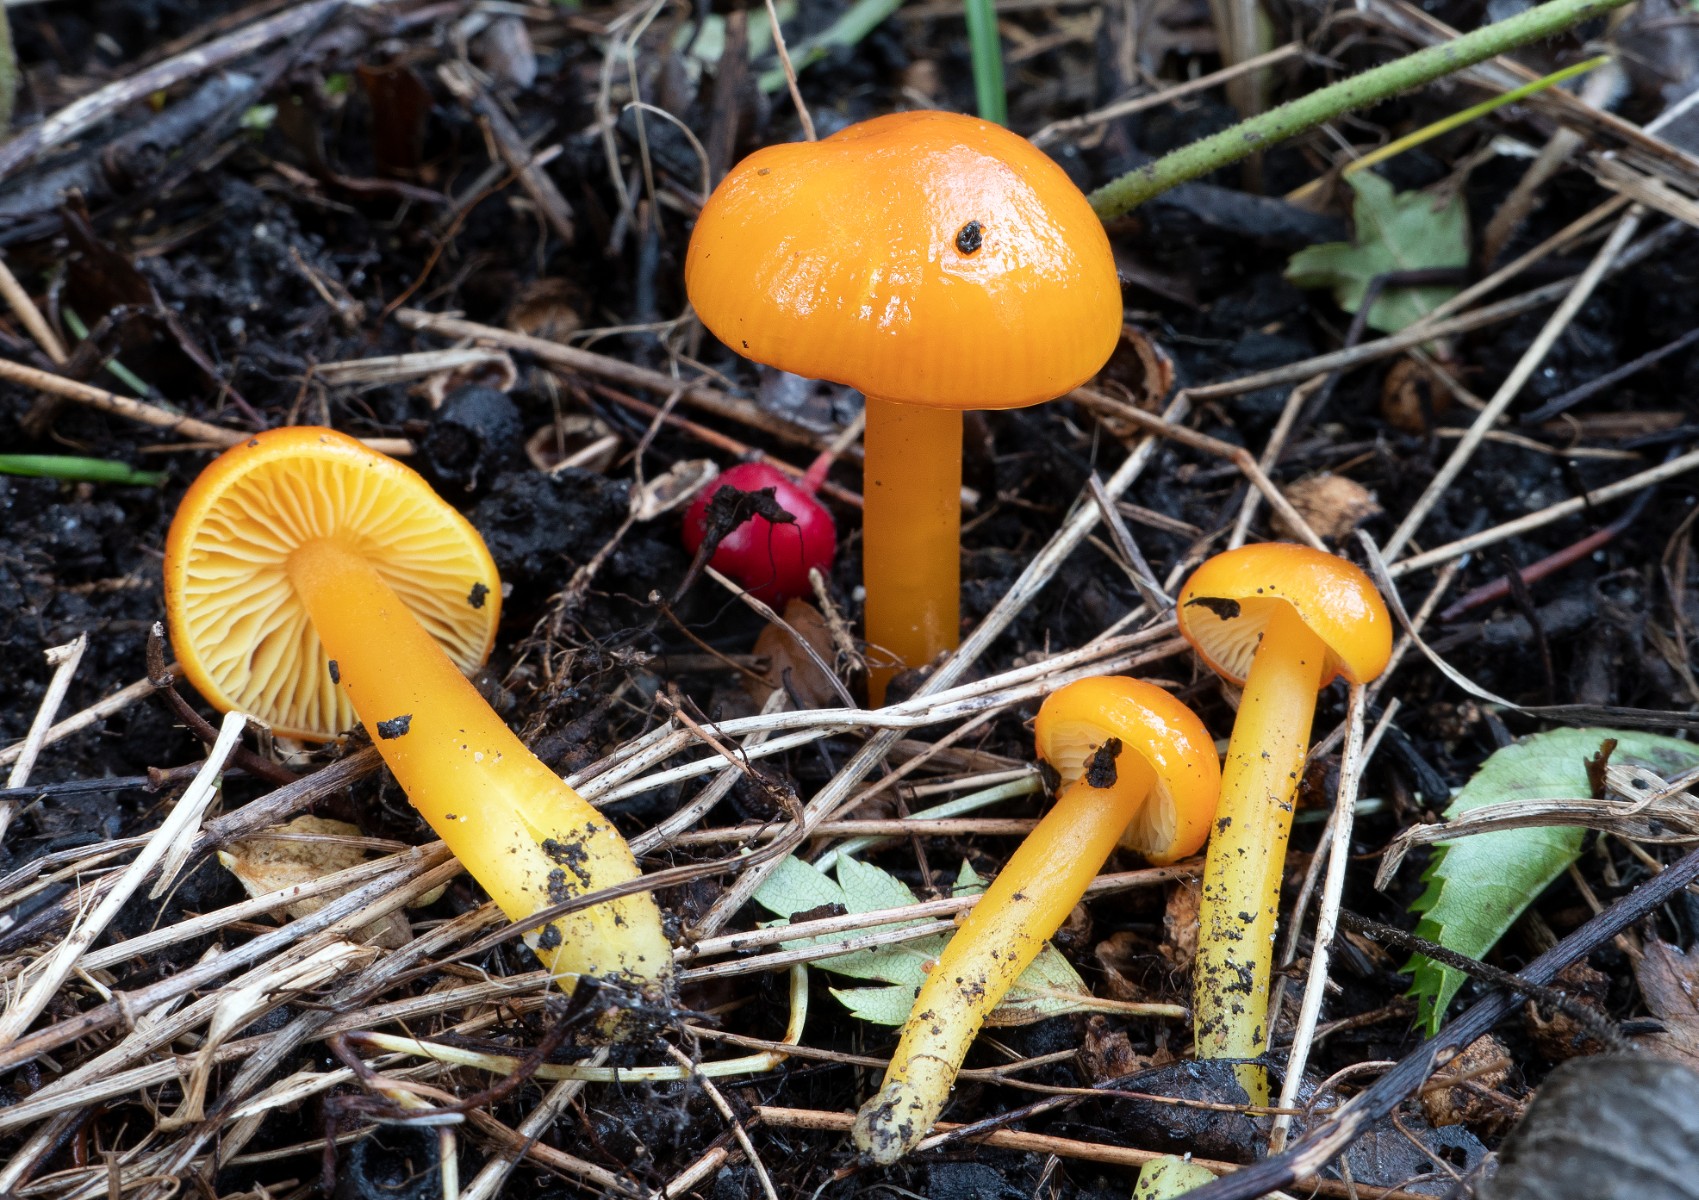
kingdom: Fungi
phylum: Basidiomycota
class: Agaricomycetes
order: Agaricales
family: Hygrophoraceae
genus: Hygrocybe
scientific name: Hygrocybe chlorophana
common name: gul vokshat
